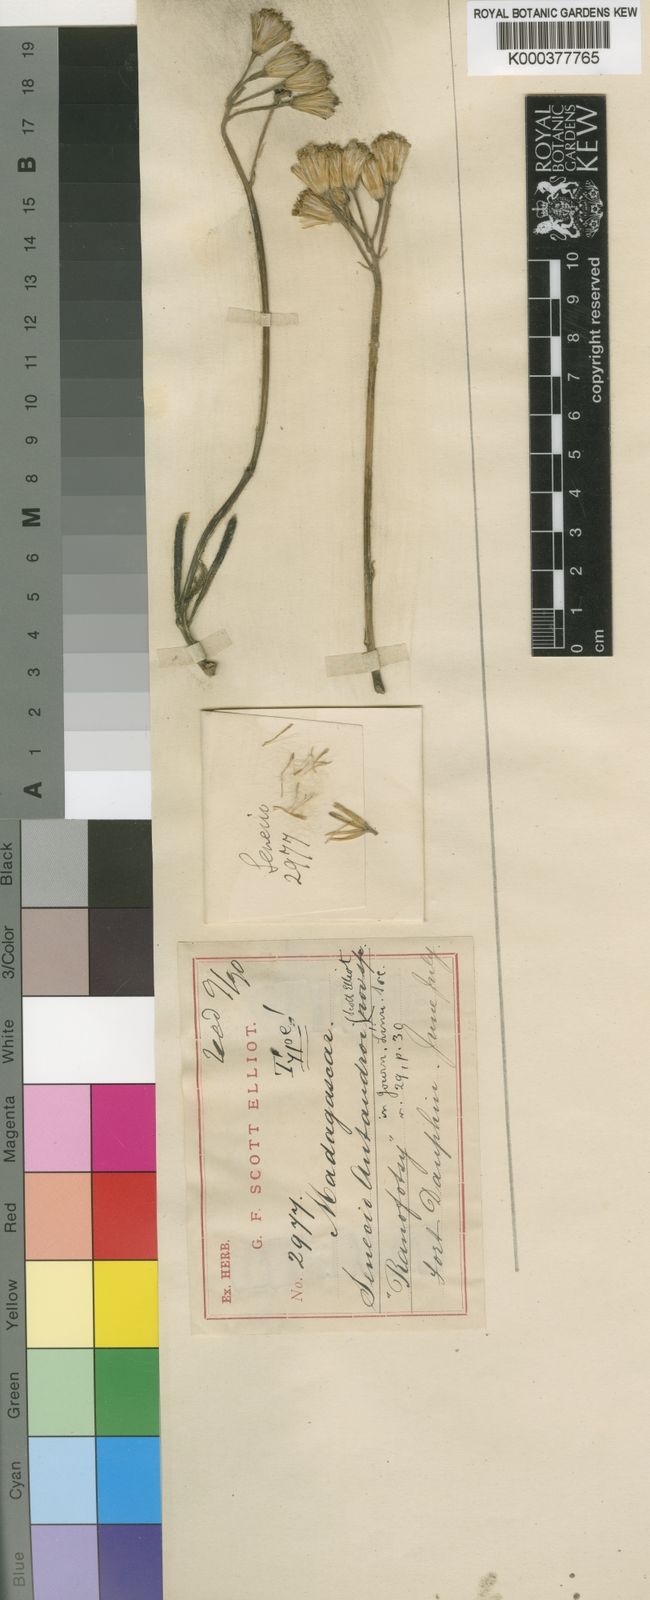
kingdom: Plantae
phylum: Tracheophyta
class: Magnoliopsida
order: Asterales
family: Asteraceae
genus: Senecio
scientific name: Senecio antandroi
